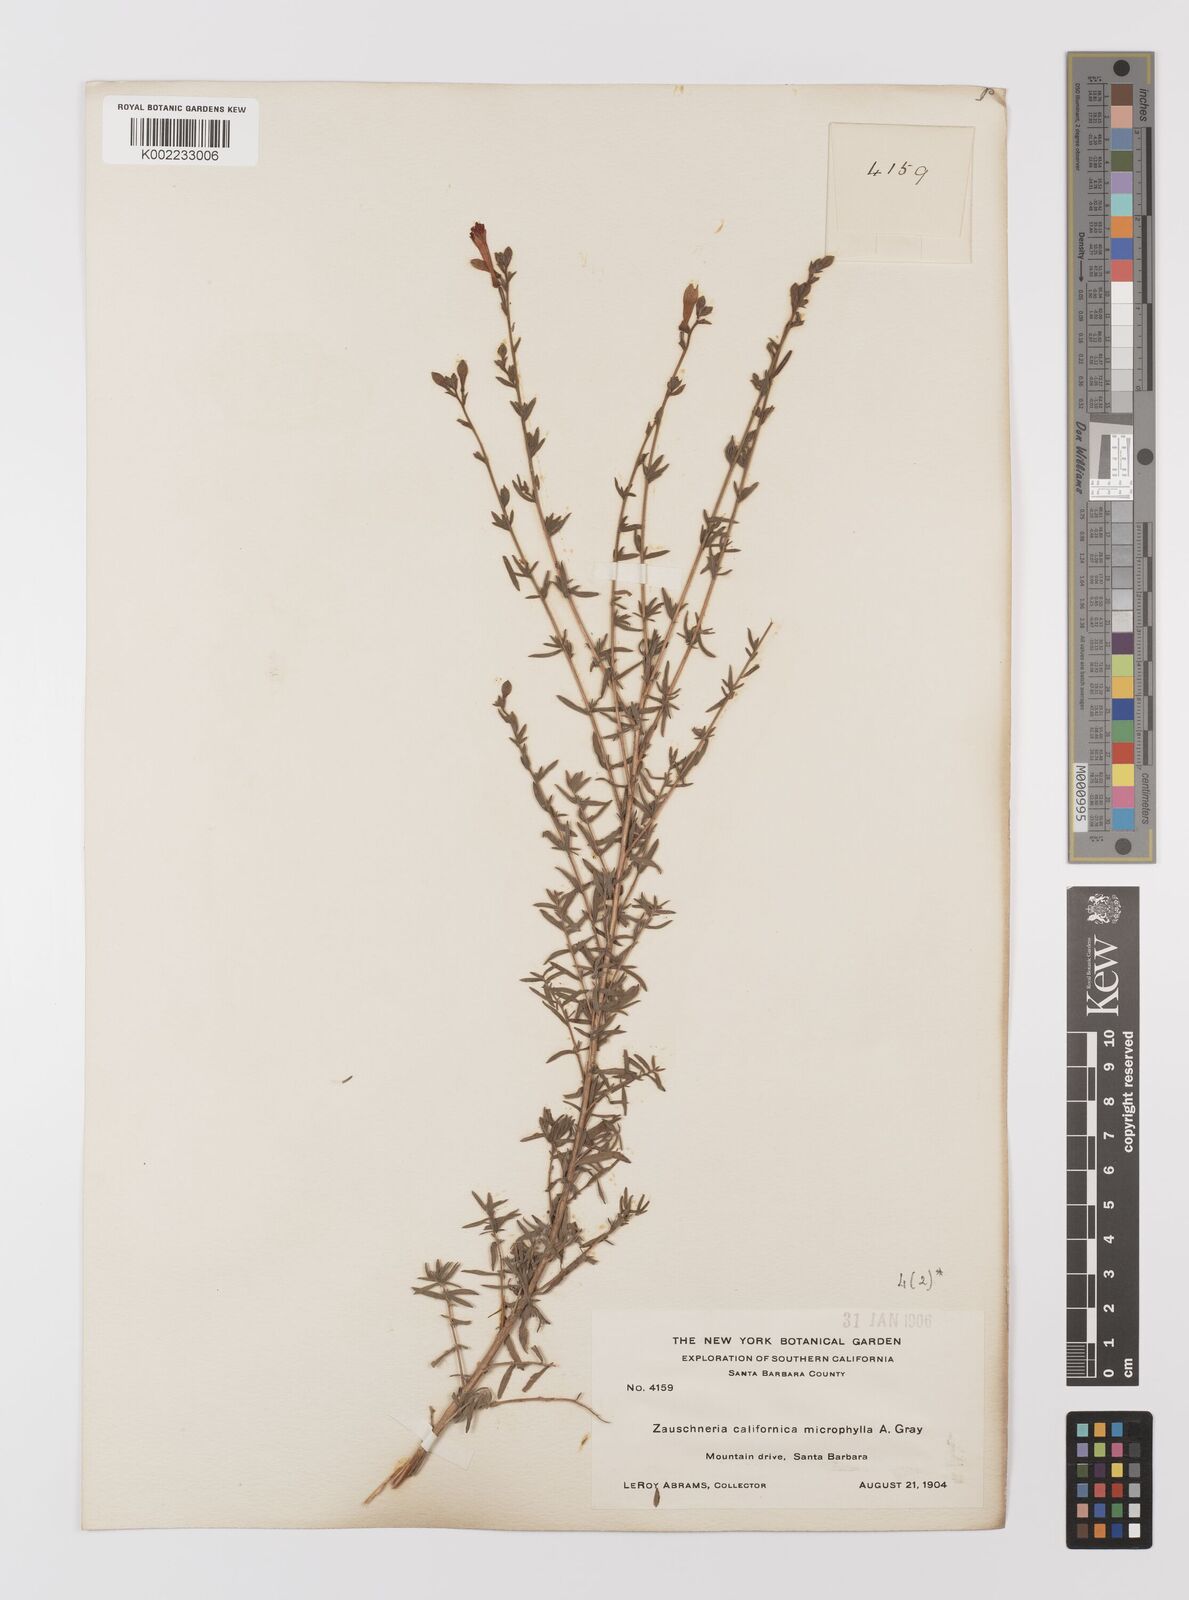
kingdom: Plantae
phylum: Tracheophyta
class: Magnoliopsida
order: Myrtales
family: Onagraceae
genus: Epilobium
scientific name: Epilobium canum
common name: California-fuchsia
